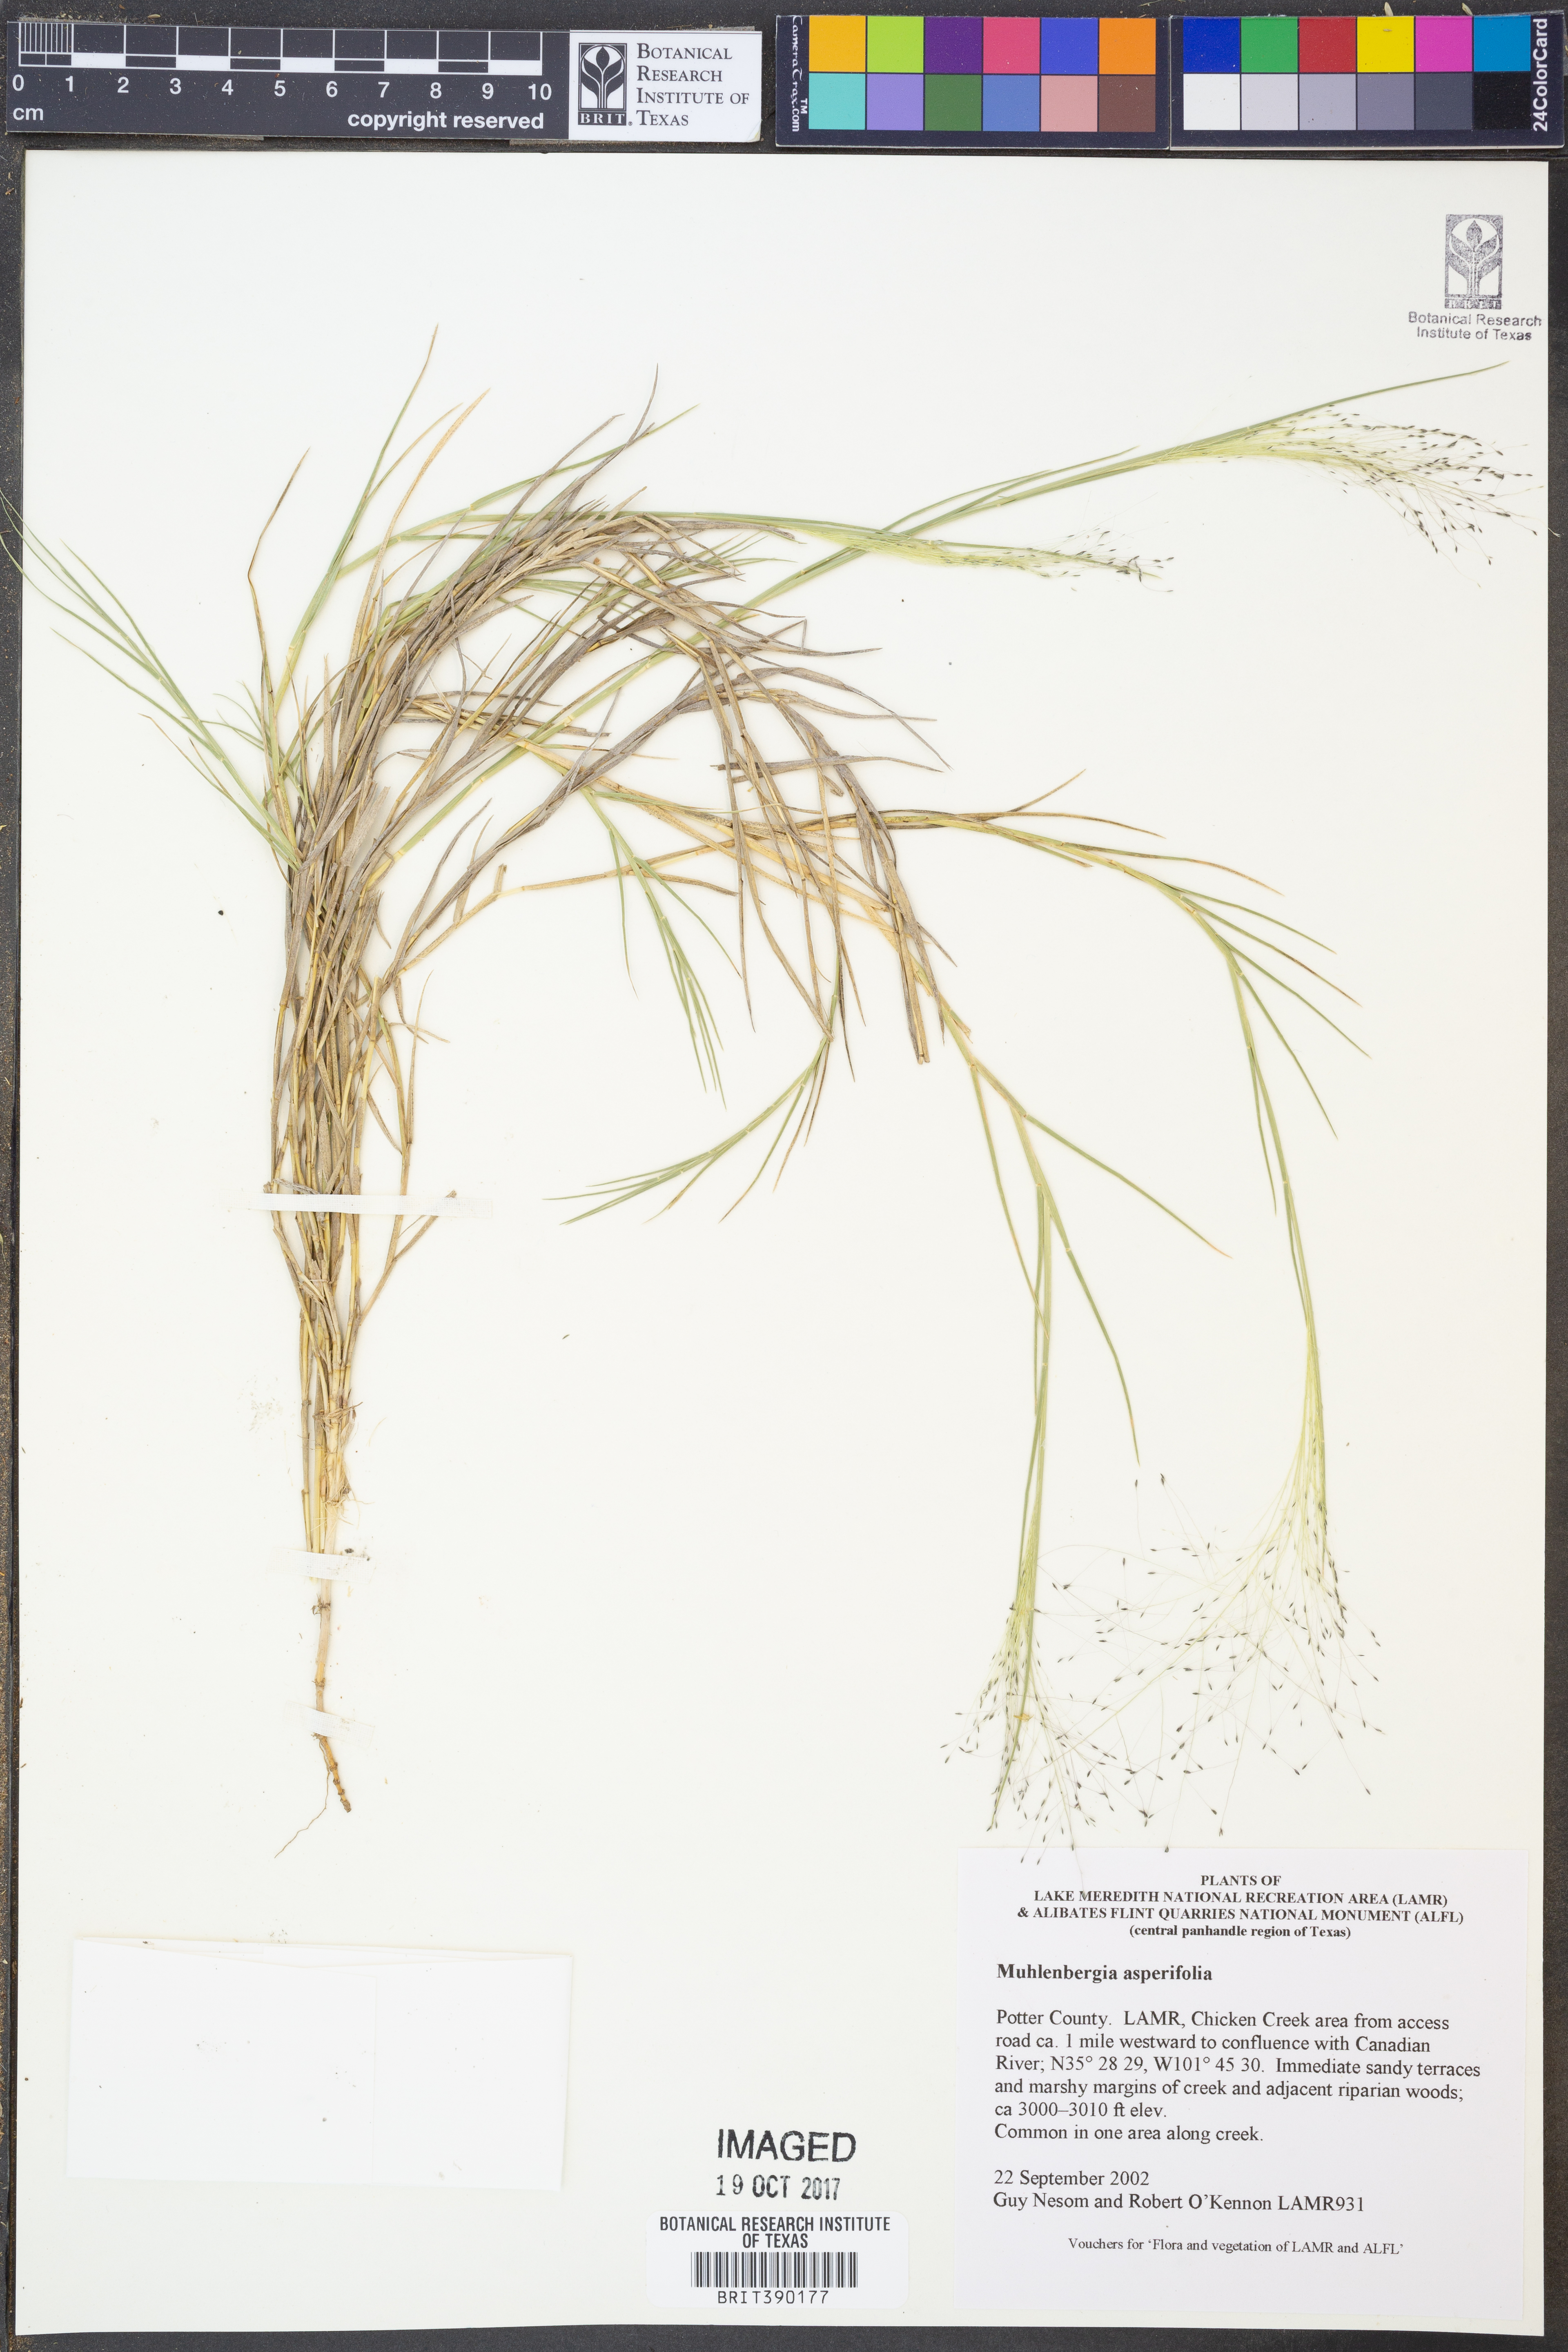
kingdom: Plantae
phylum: Tracheophyta
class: Liliopsida
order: Poales
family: Poaceae
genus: Muhlenbergia
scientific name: Muhlenbergia asperifolia
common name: Alkali muhly
